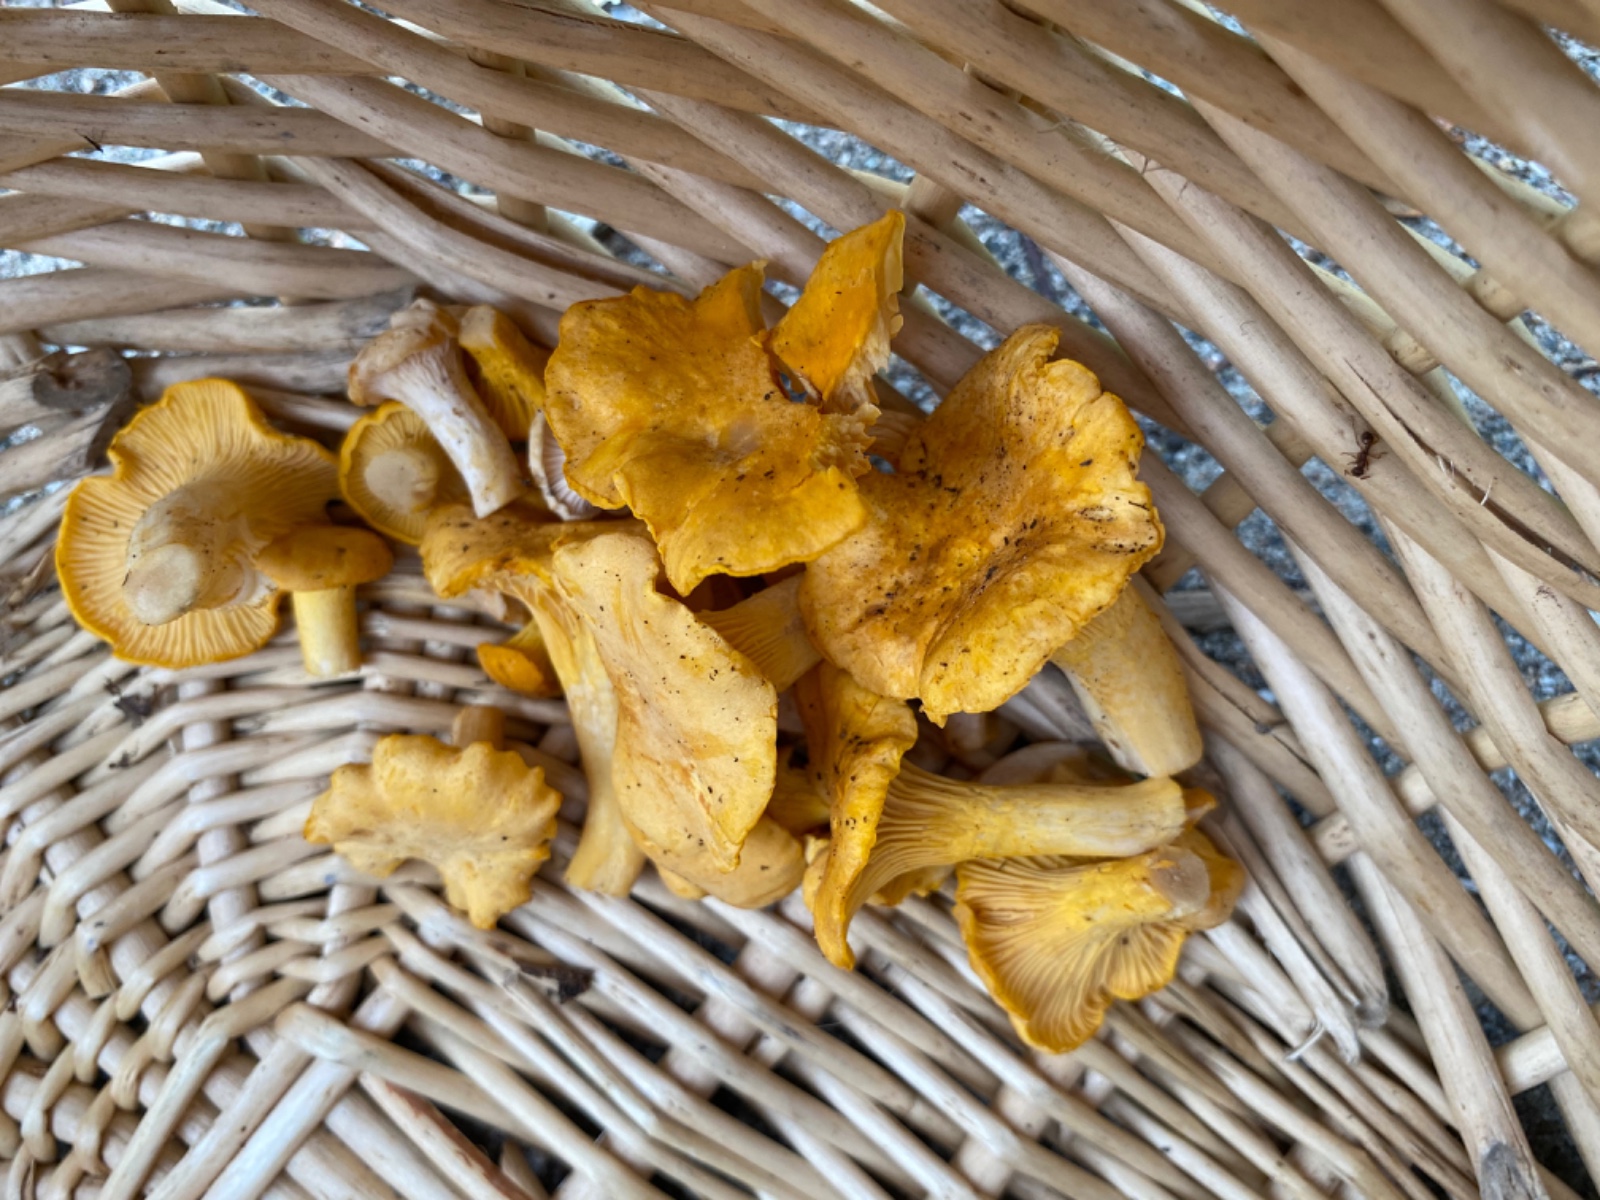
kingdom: Fungi
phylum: Basidiomycota
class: Agaricomycetes
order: Cantharellales
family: Hydnaceae
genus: Cantharellus
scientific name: Cantharellus cibarius
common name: almindelig kantarel
